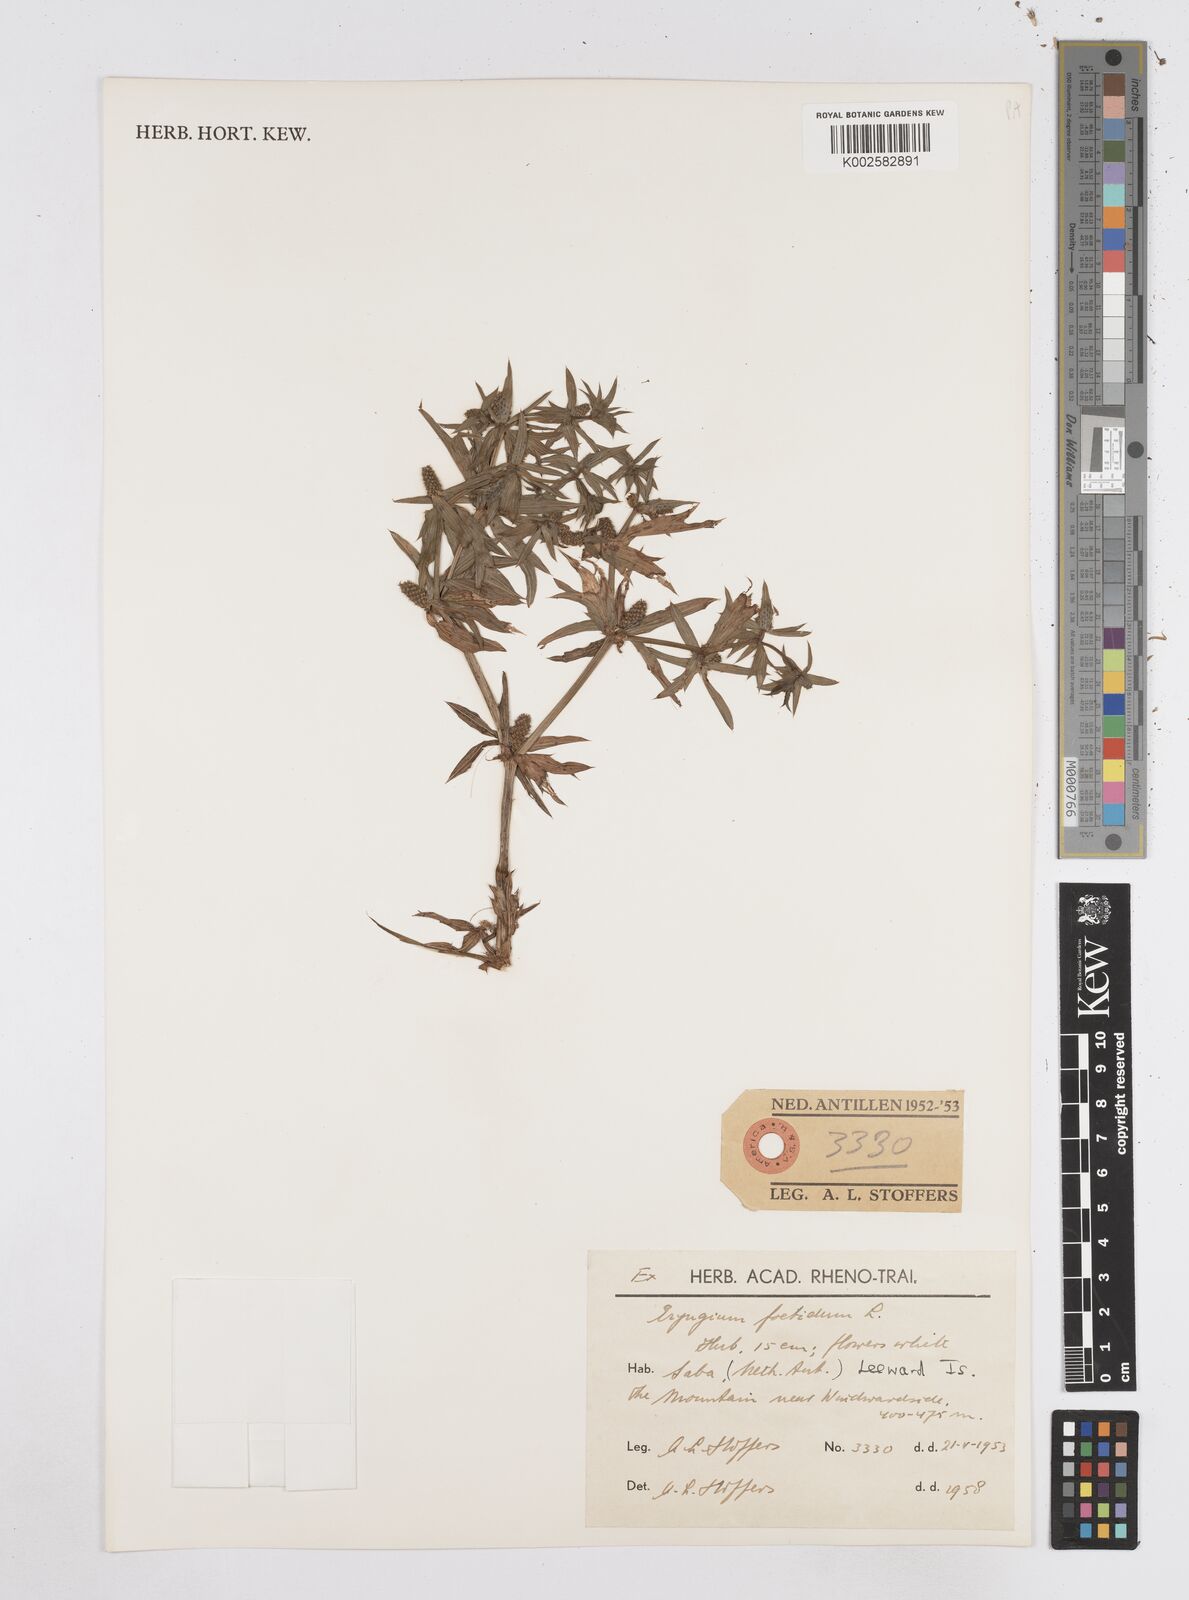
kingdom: Plantae
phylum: Tracheophyta
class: Magnoliopsida
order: Apiales
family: Apiaceae
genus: Eryngium
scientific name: Eryngium foetidum
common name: Fitweed
